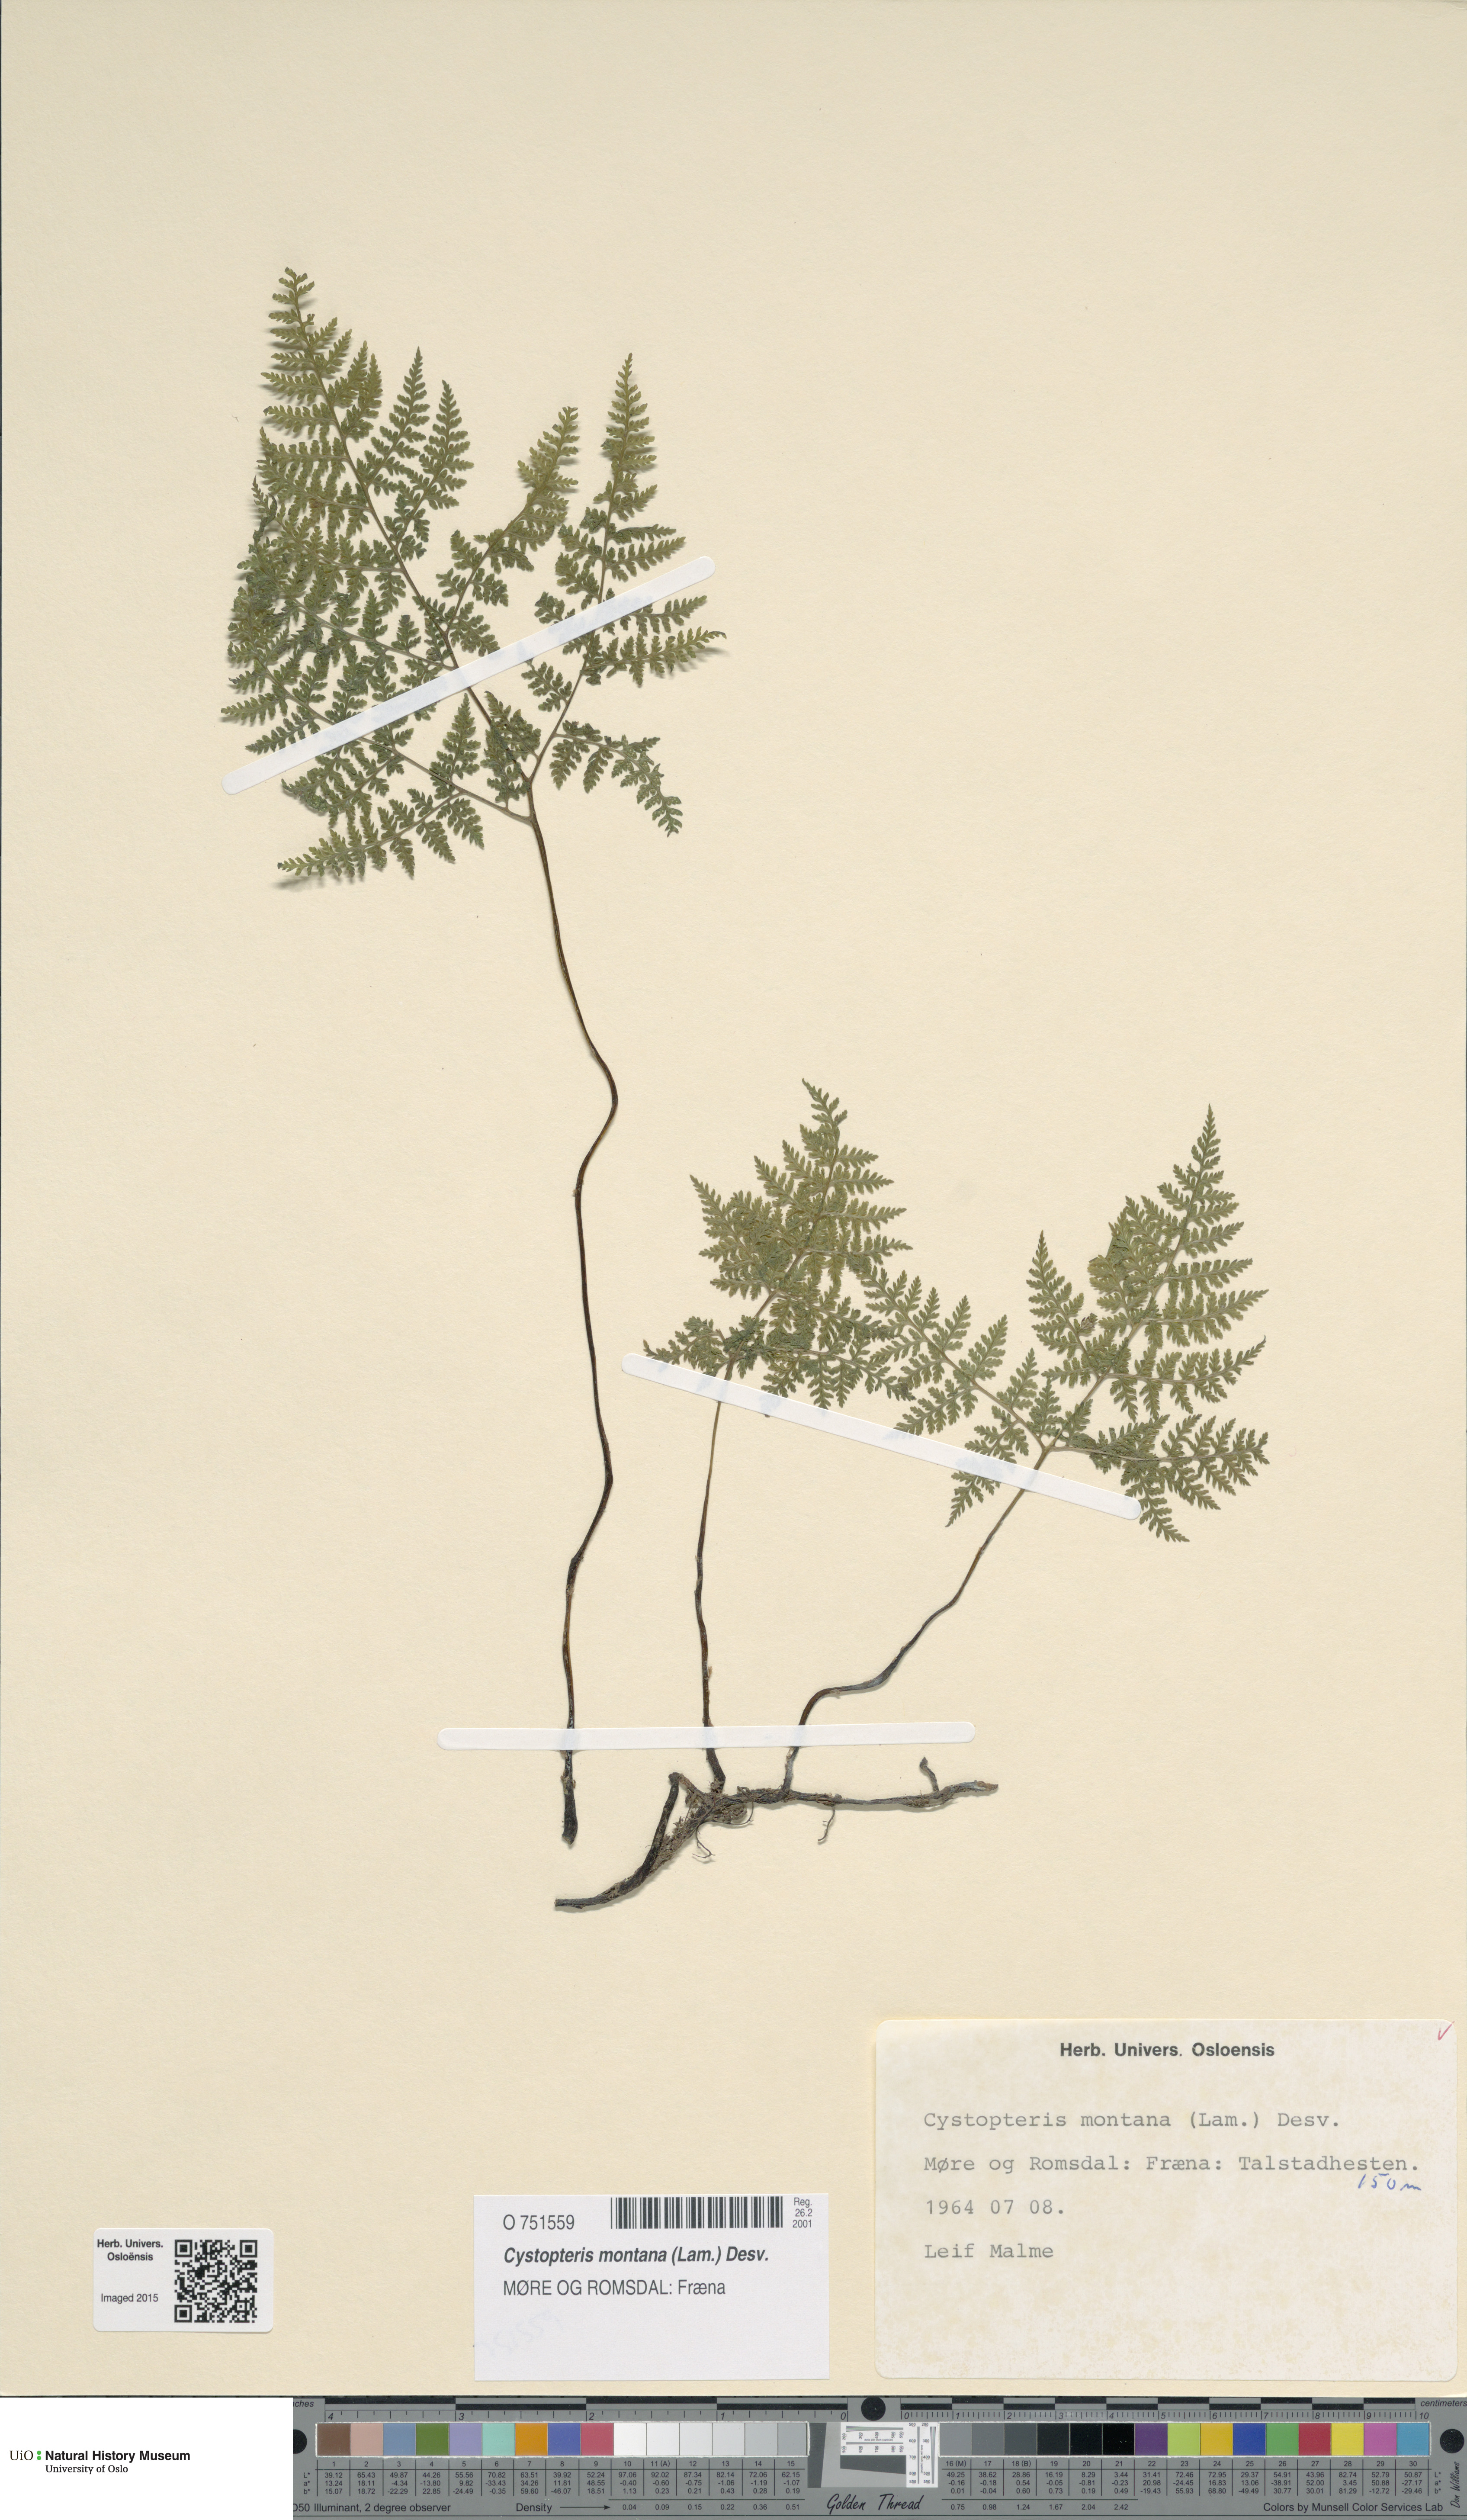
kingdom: Plantae
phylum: Tracheophyta
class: Polypodiopsida
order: Polypodiales
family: Cystopteridaceae
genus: Cystopteris
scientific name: Cystopteris montana
